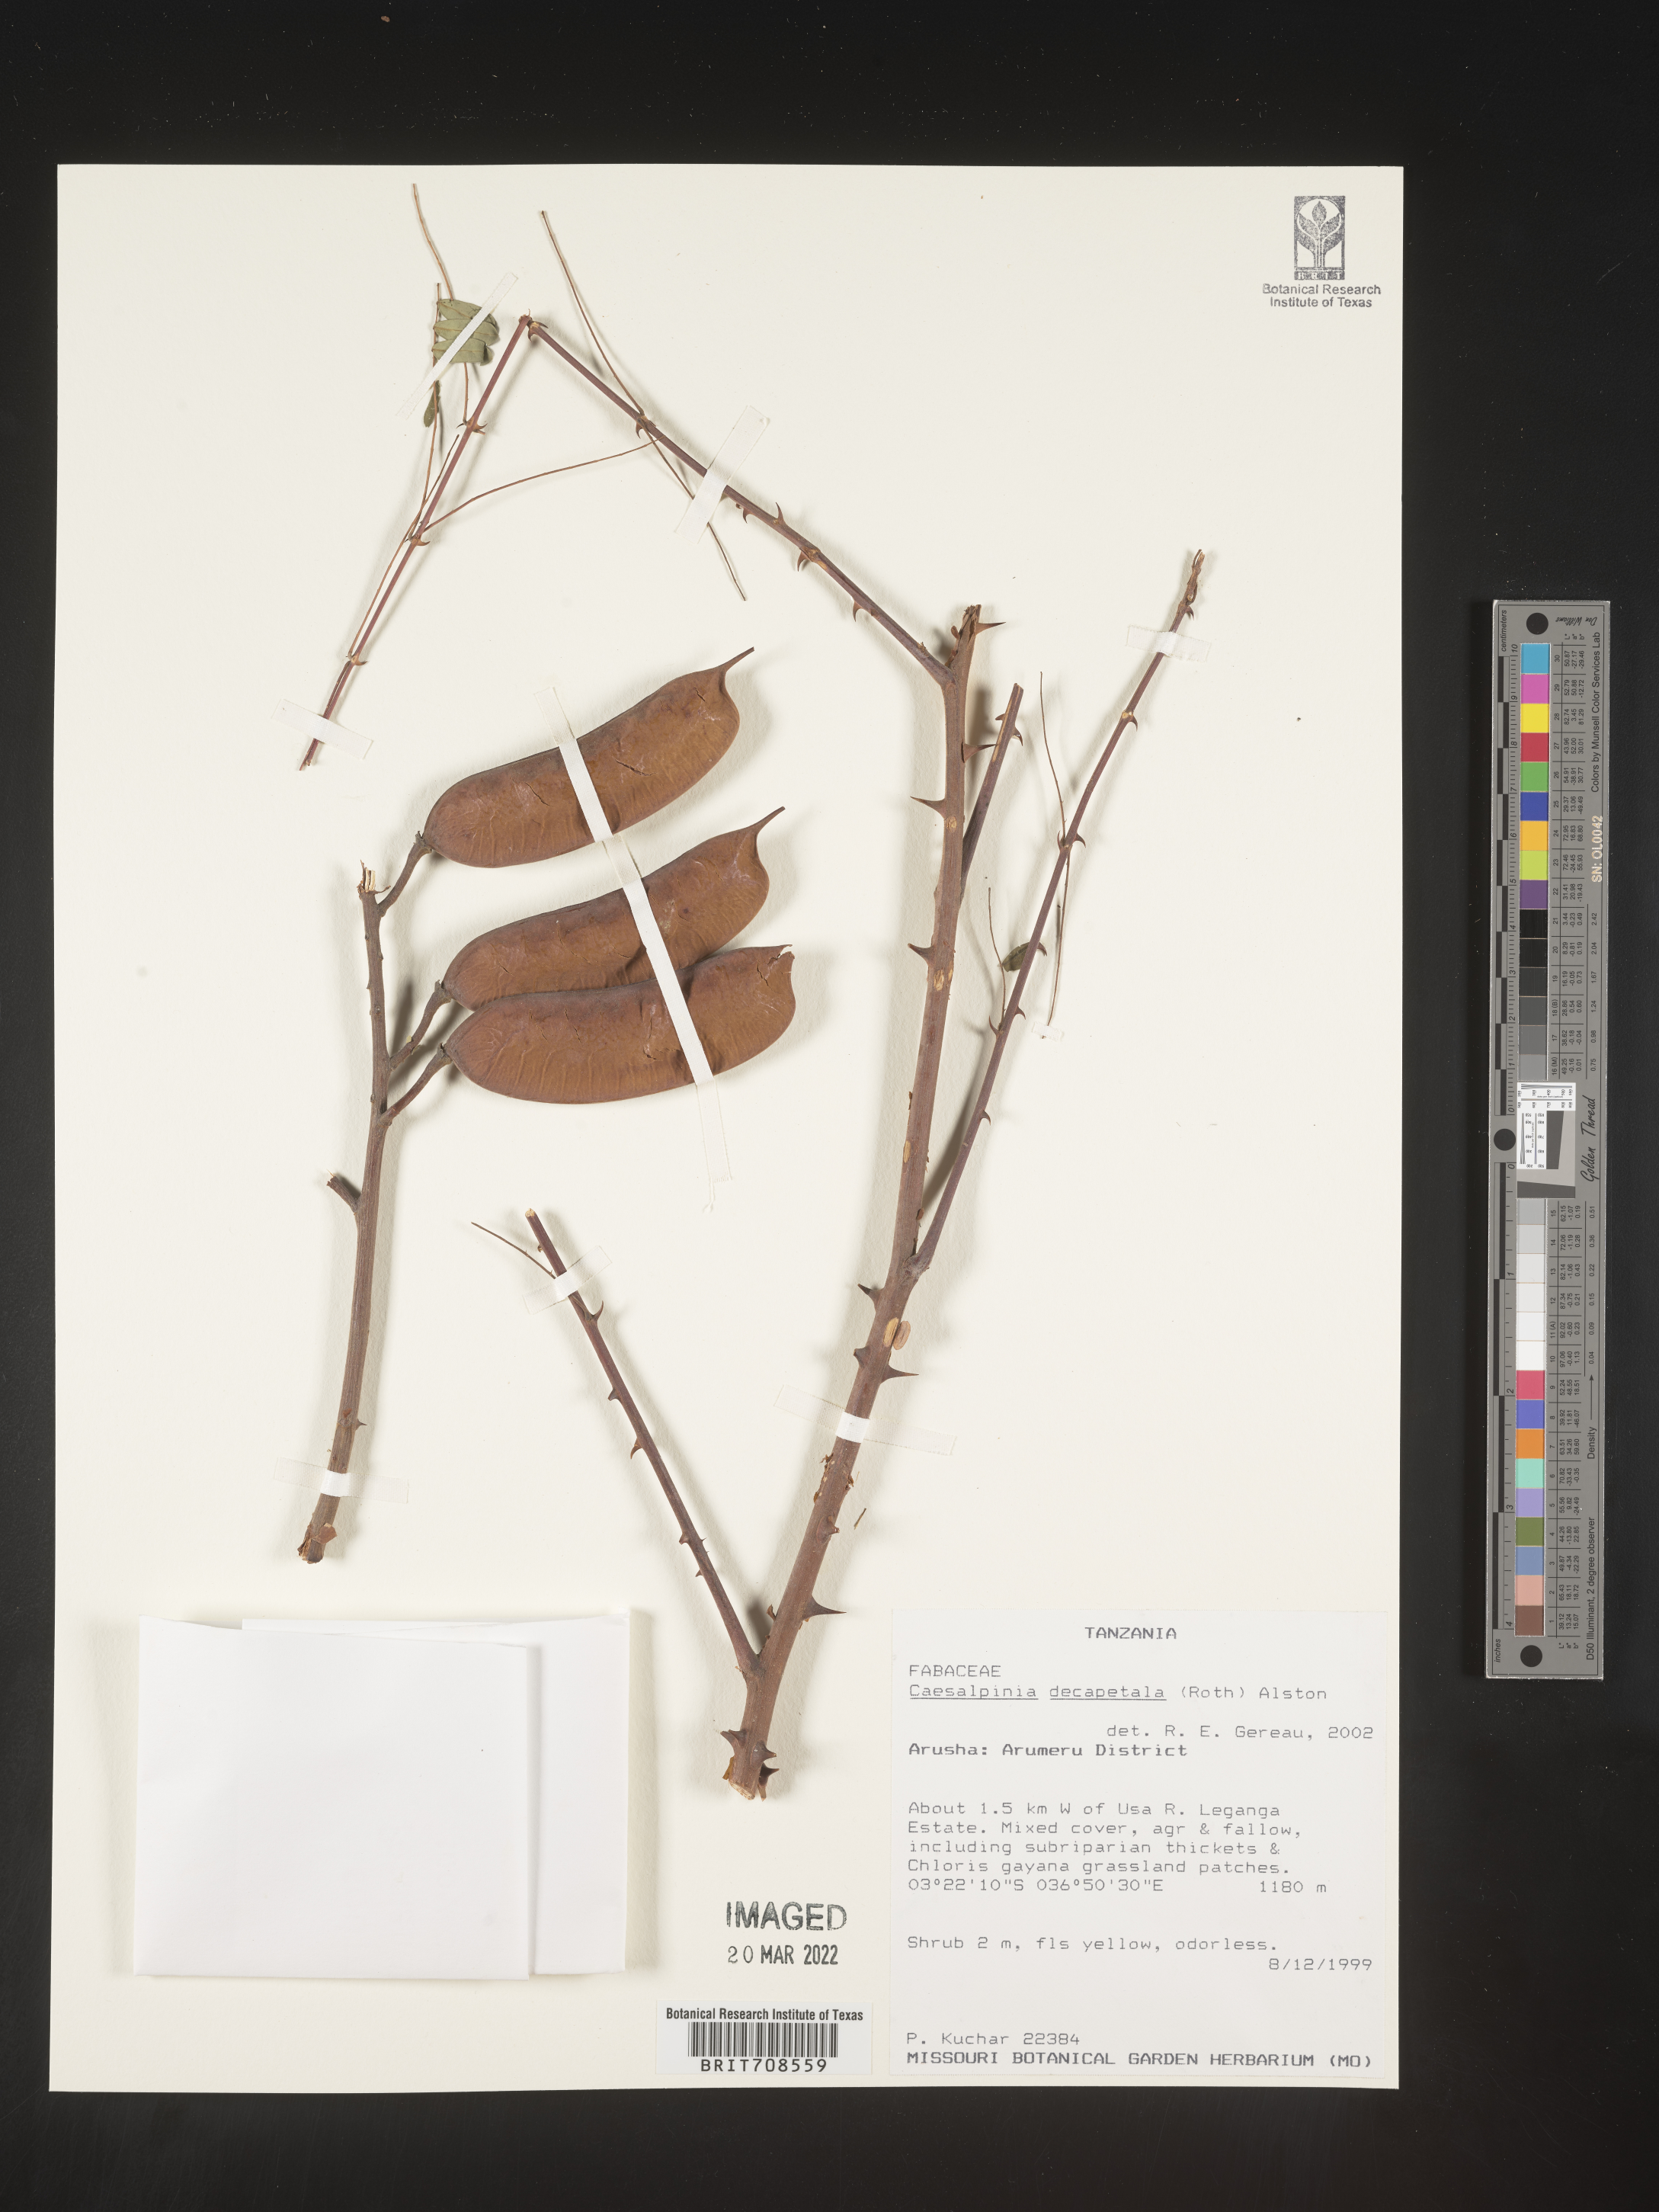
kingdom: Plantae
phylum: Tracheophyta
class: Magnoliopsida
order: Fabales
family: Fabaceae
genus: Caesalpinia
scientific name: Caesalpinia
